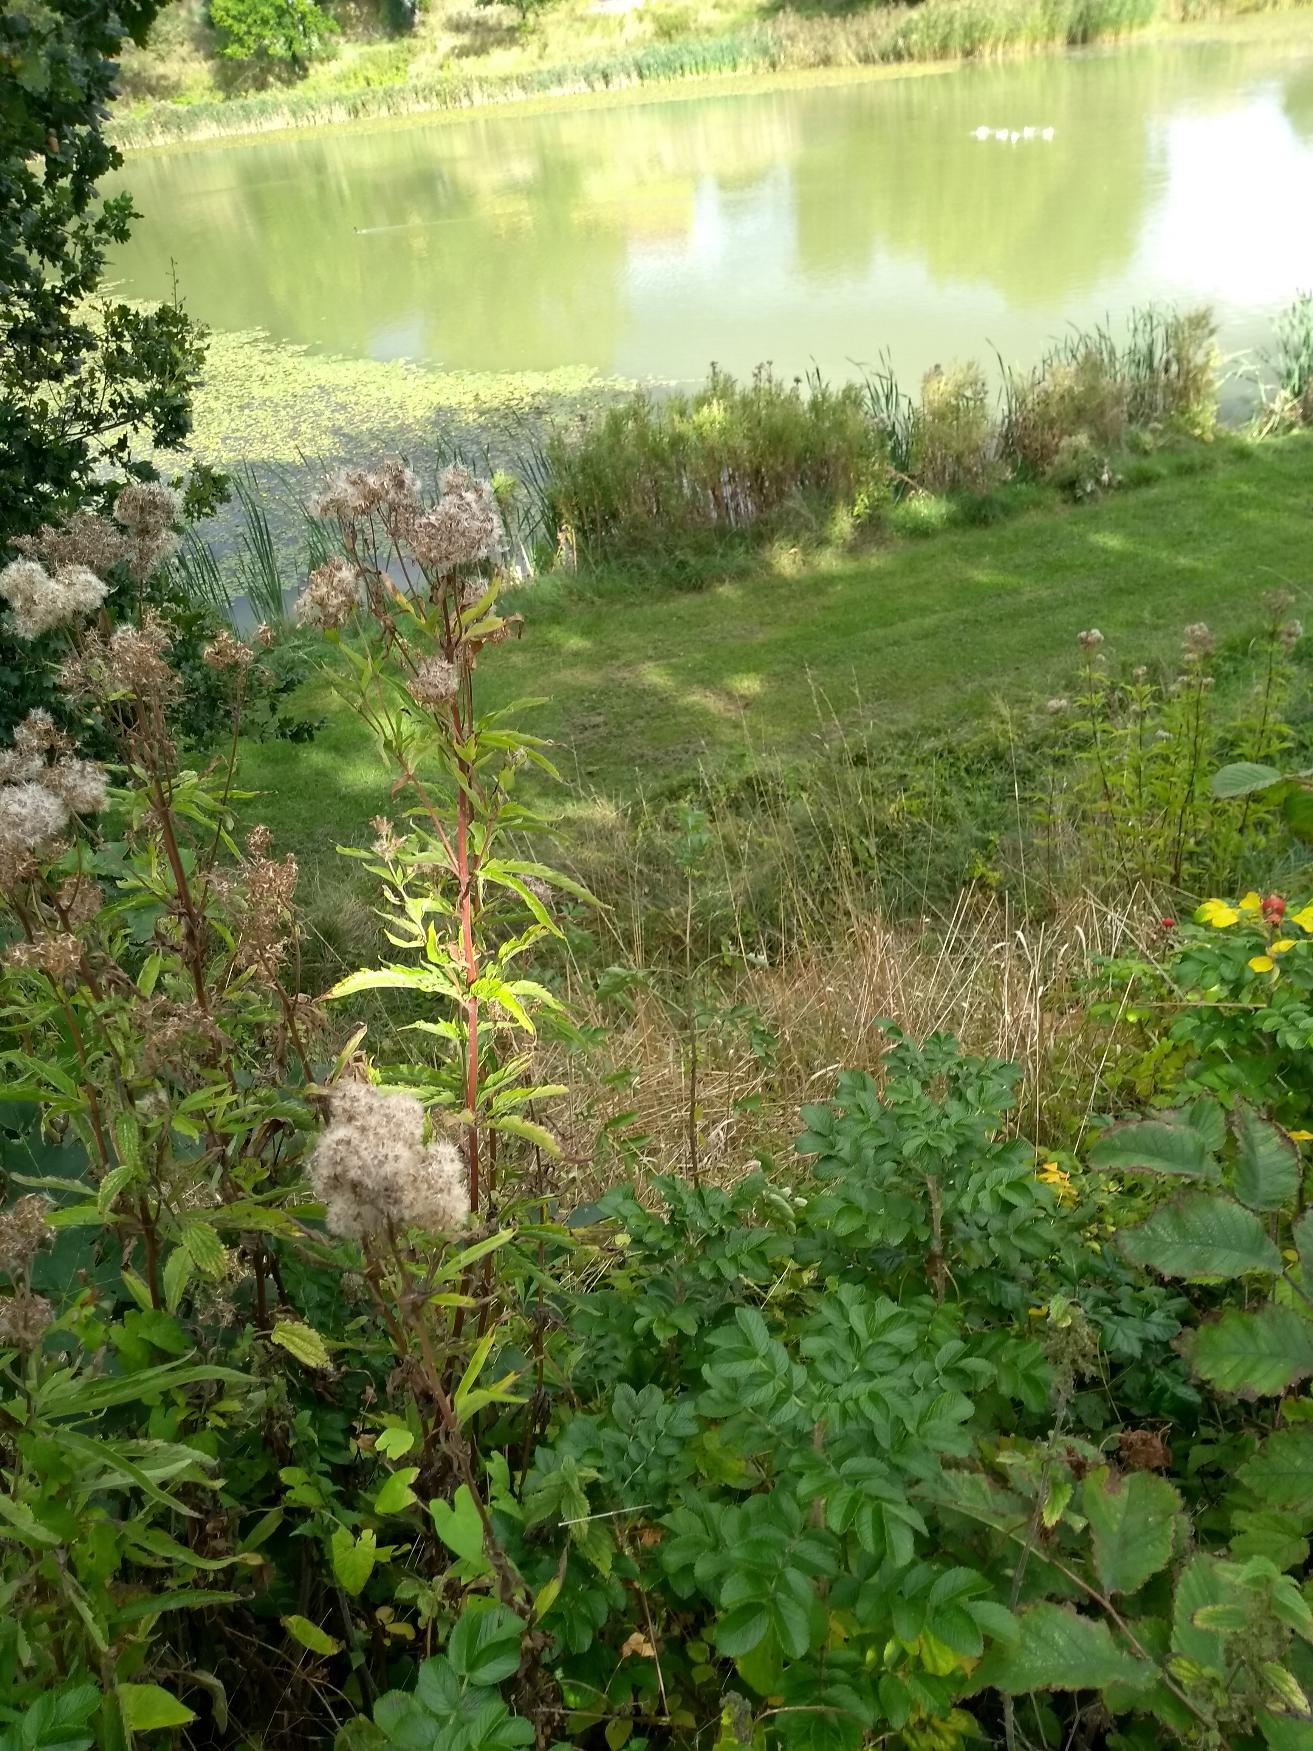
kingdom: Plantae
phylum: Tracheophyta
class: Magnoliopsida
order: Asterales
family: Asteraceae
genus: Eupatorium
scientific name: Eupatorium cannabinum
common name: Hjortetrøst
